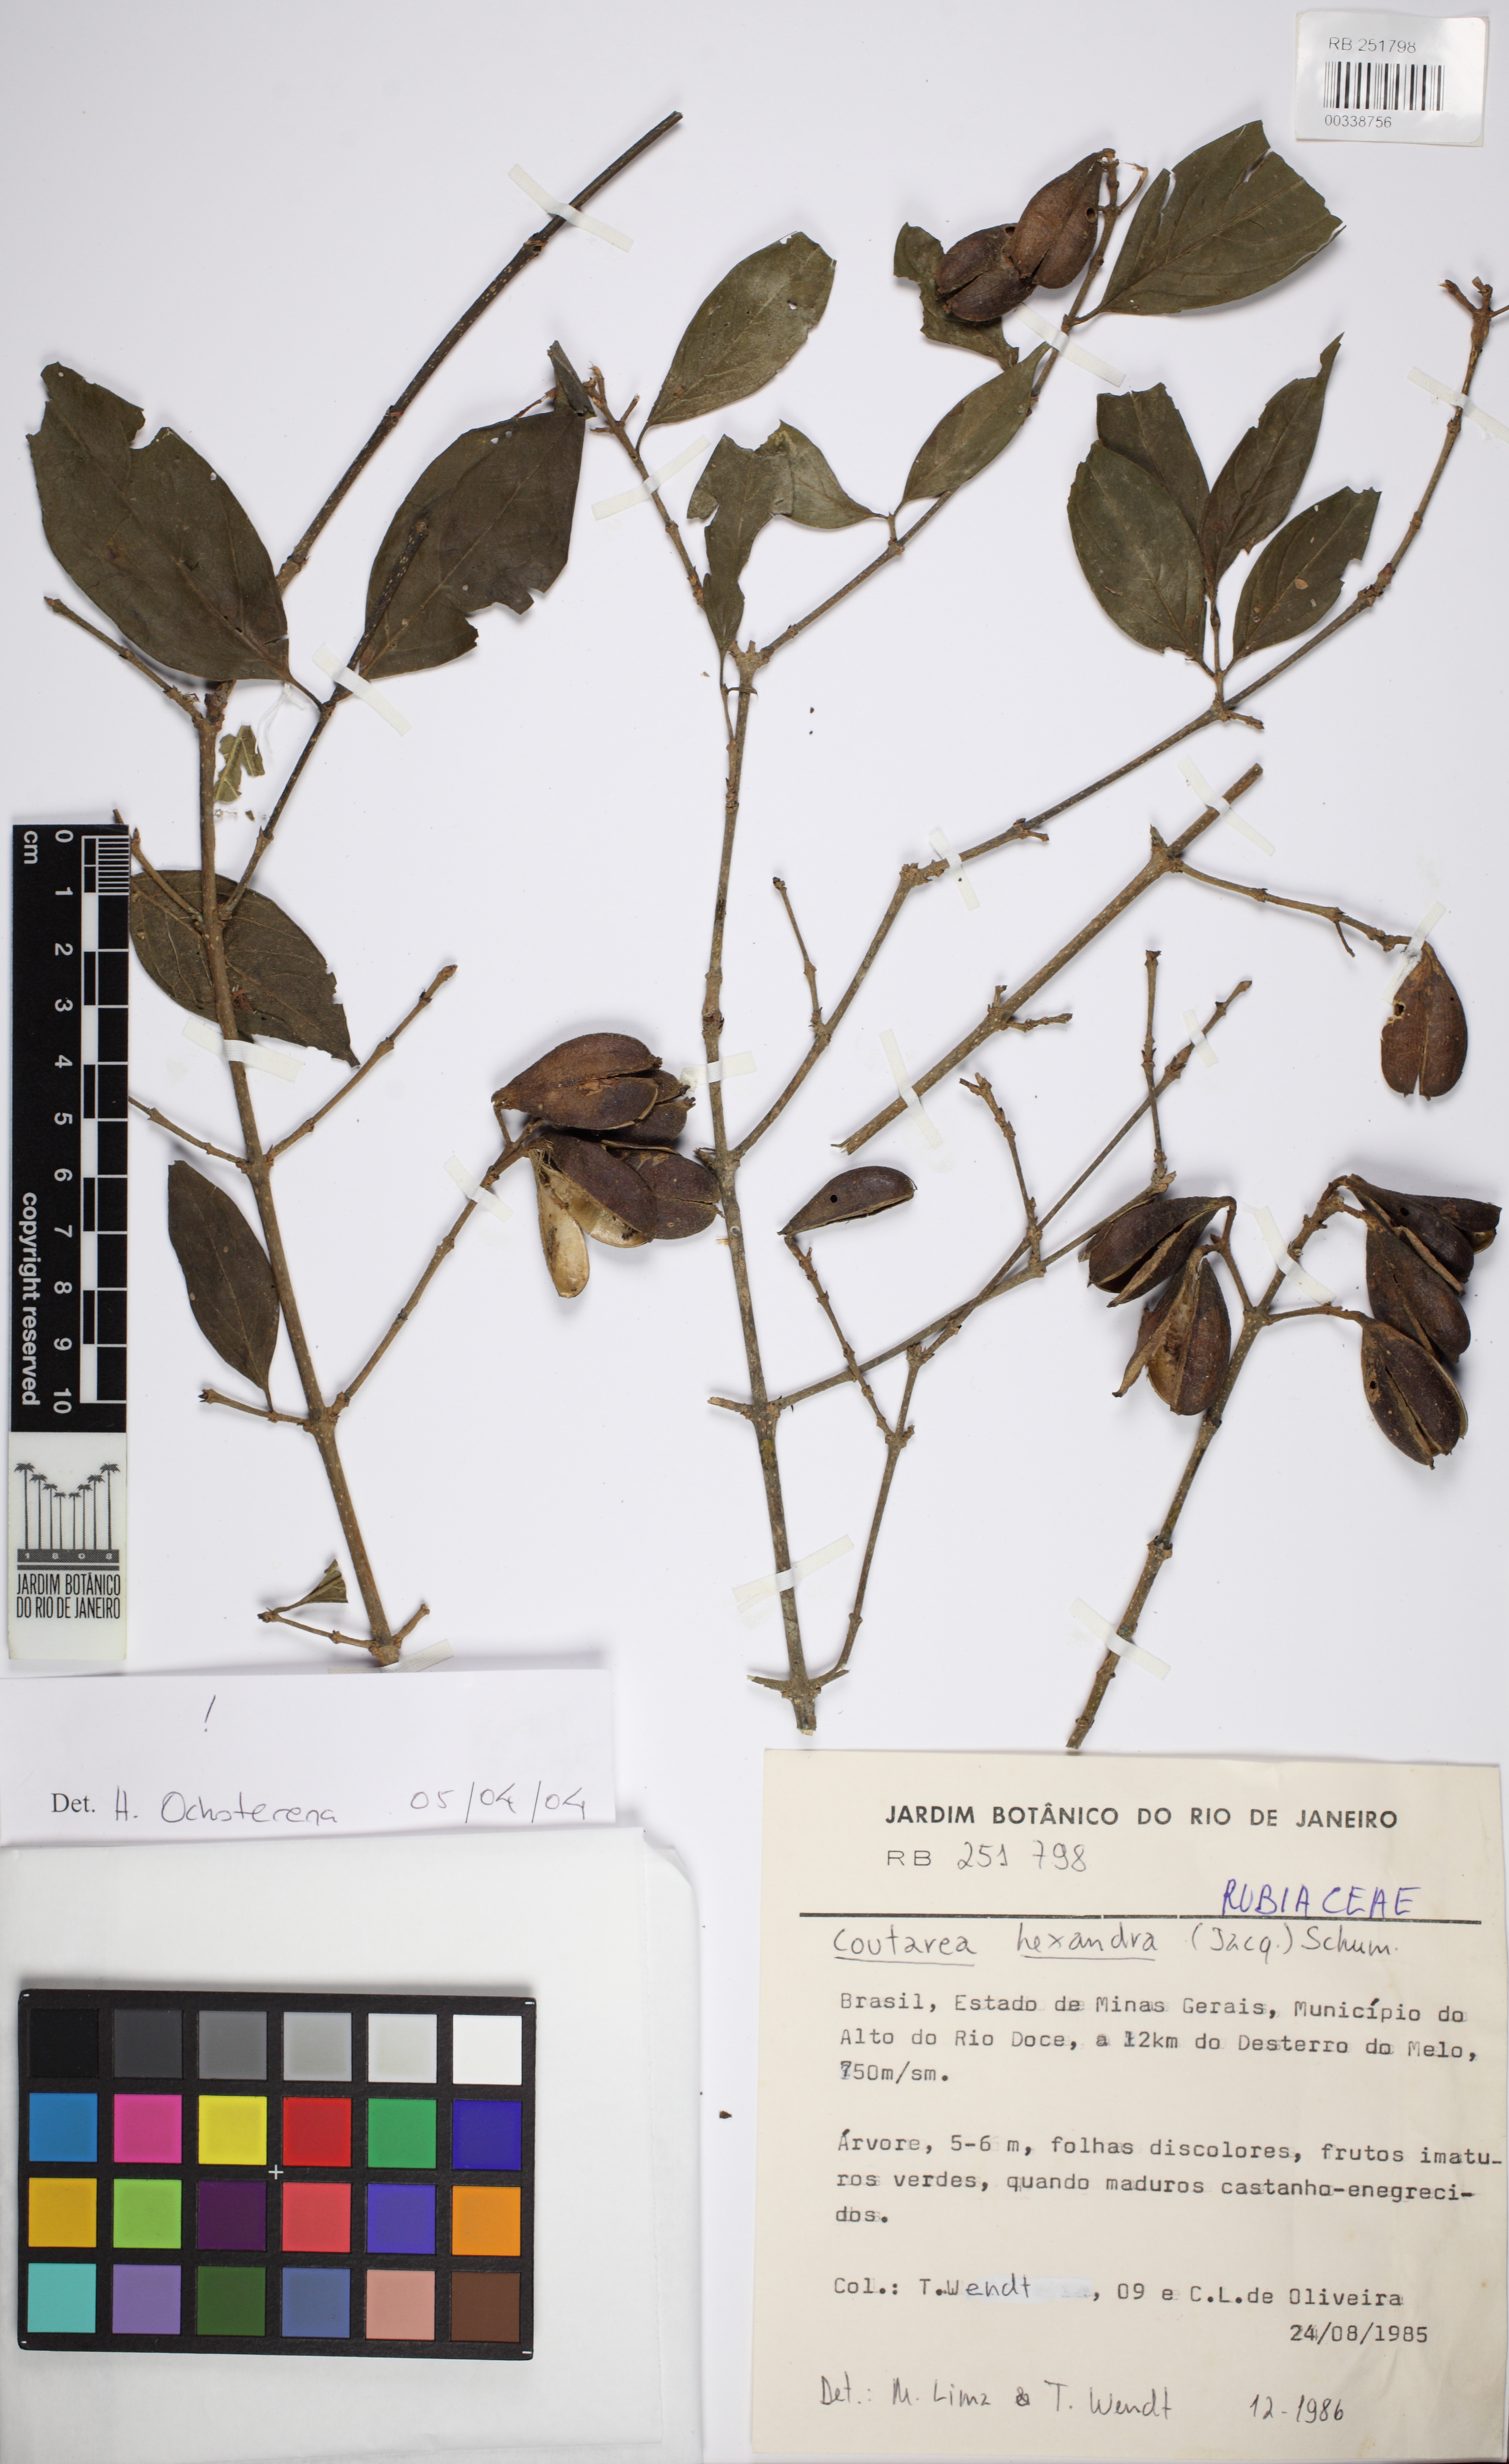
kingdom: Plantae
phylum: Tracheophyta
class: Magnoliopsida
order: Gentianales
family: Rubiaceae
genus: Coutarea
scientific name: Coutarea hexandra
